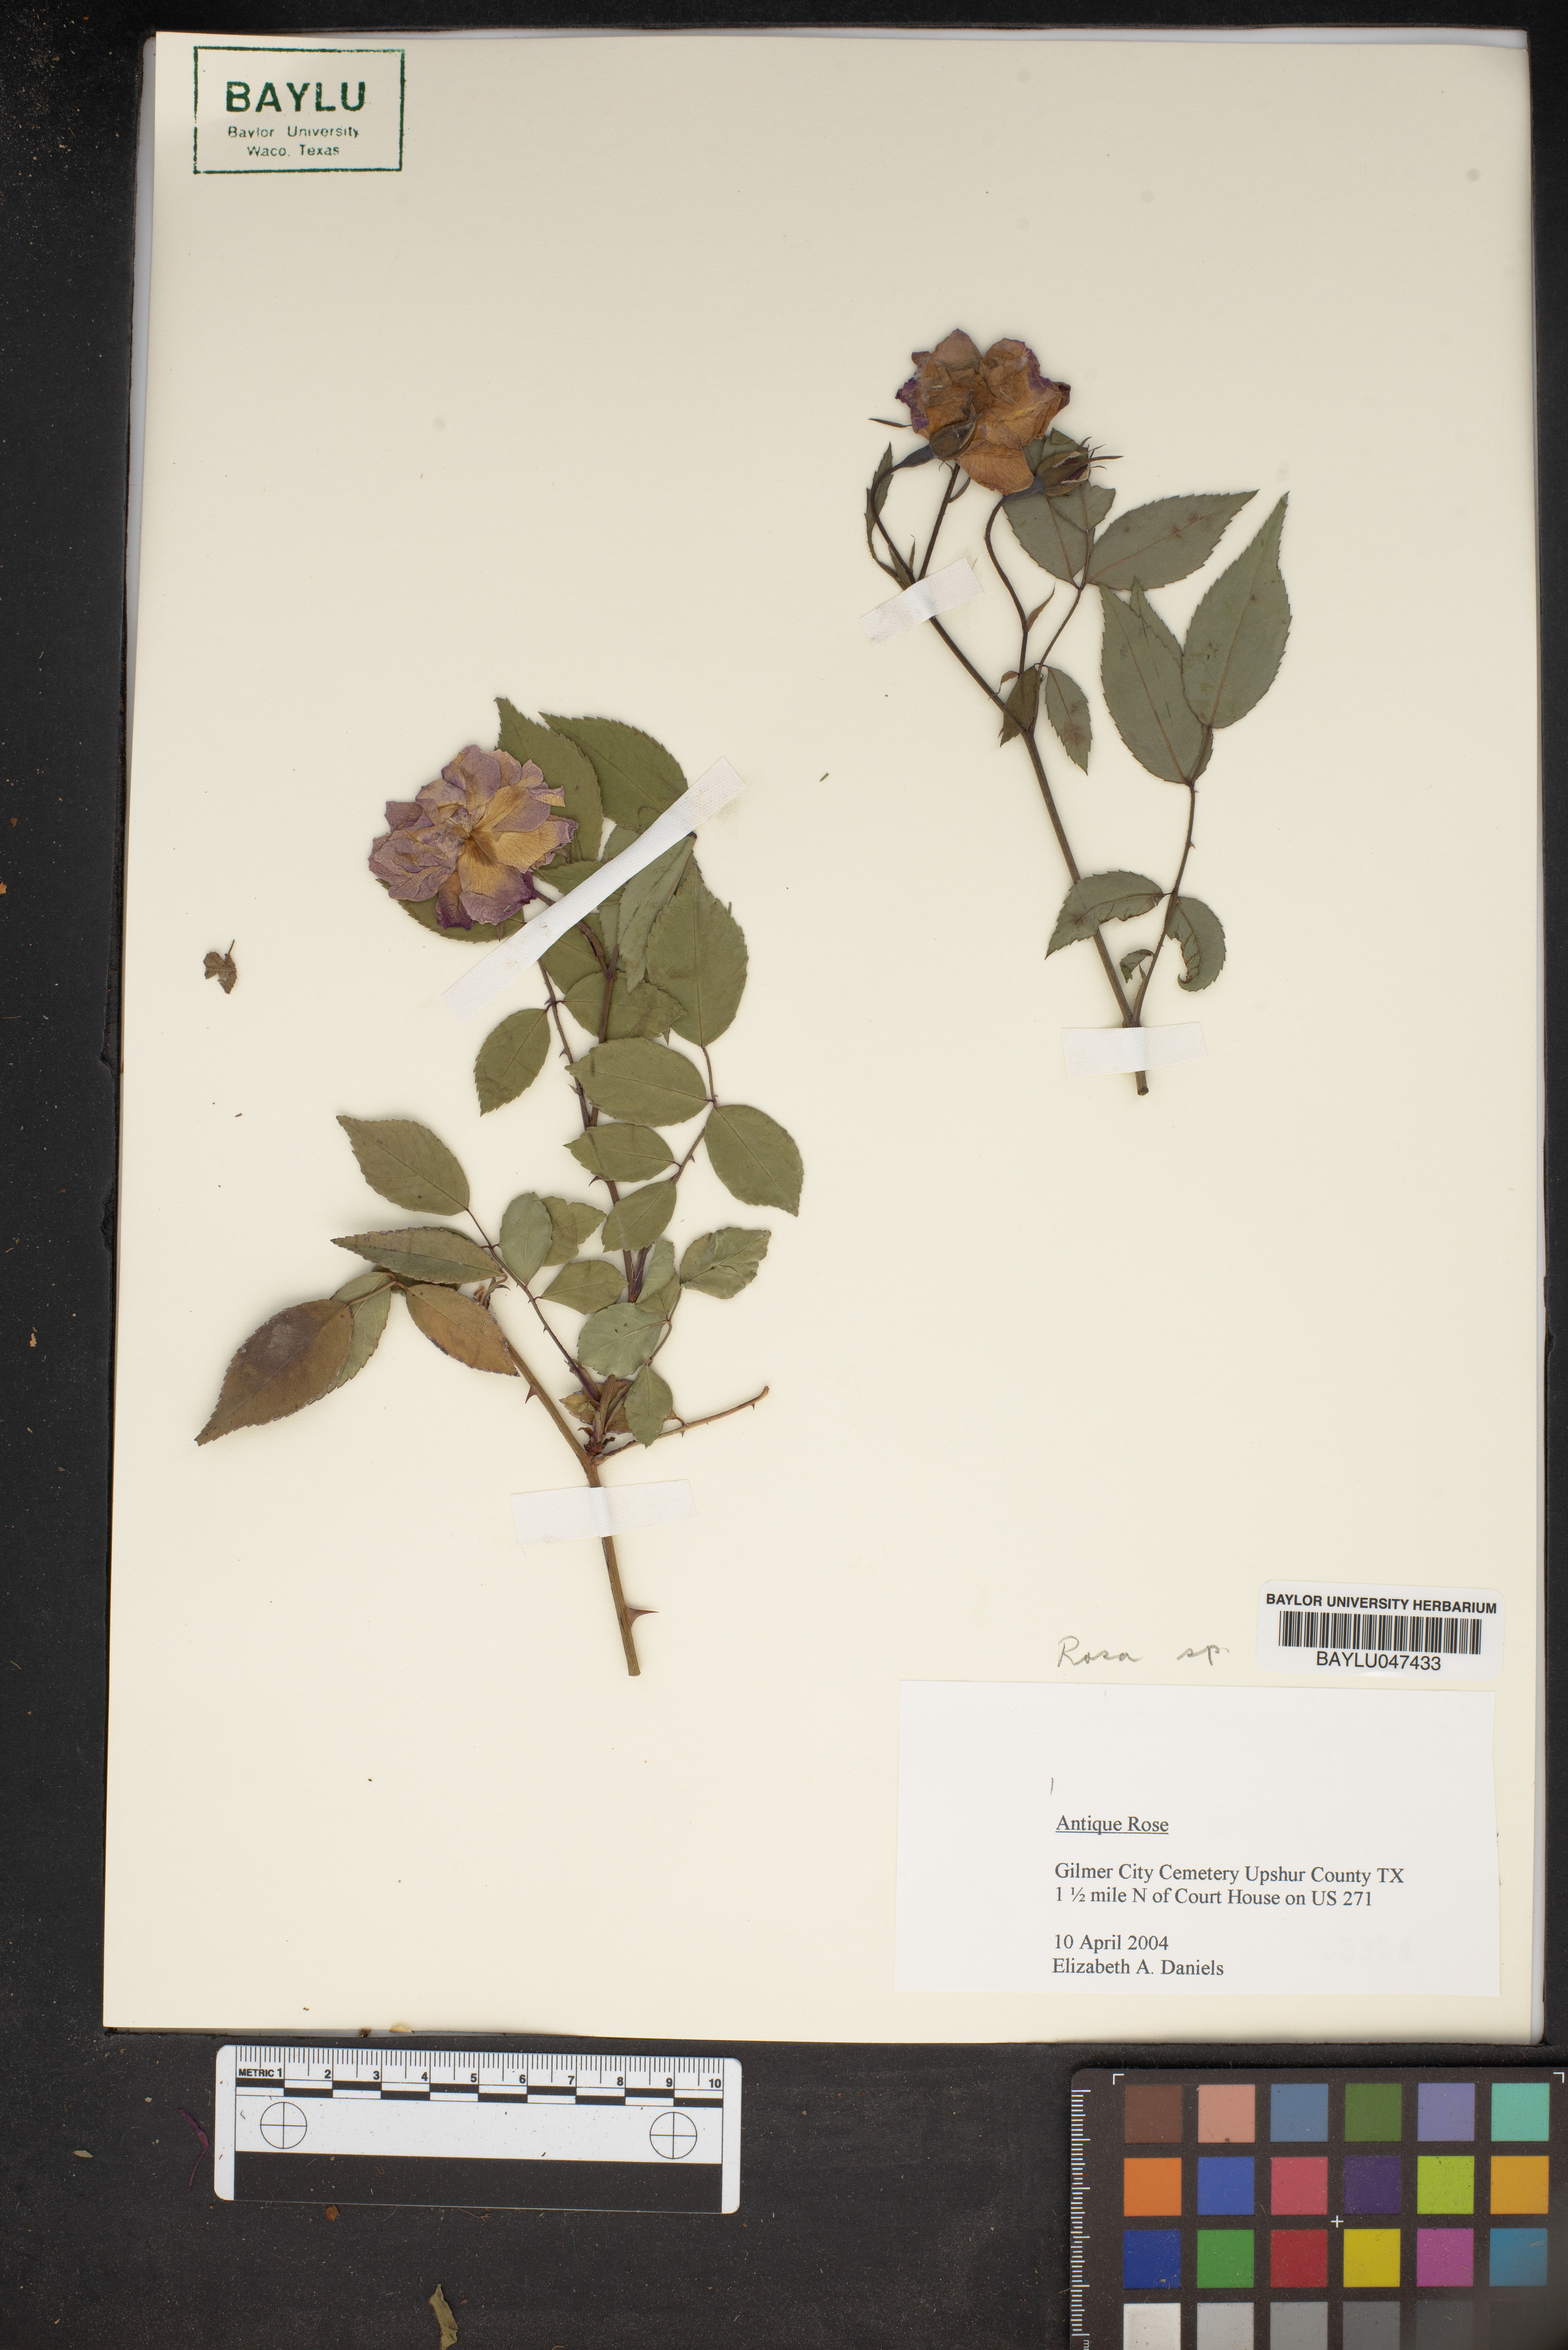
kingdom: Plantae
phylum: Tracheophyta
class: Magnoliopsida
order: Rosales
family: Rosaceae
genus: Rosa
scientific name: Rosa
